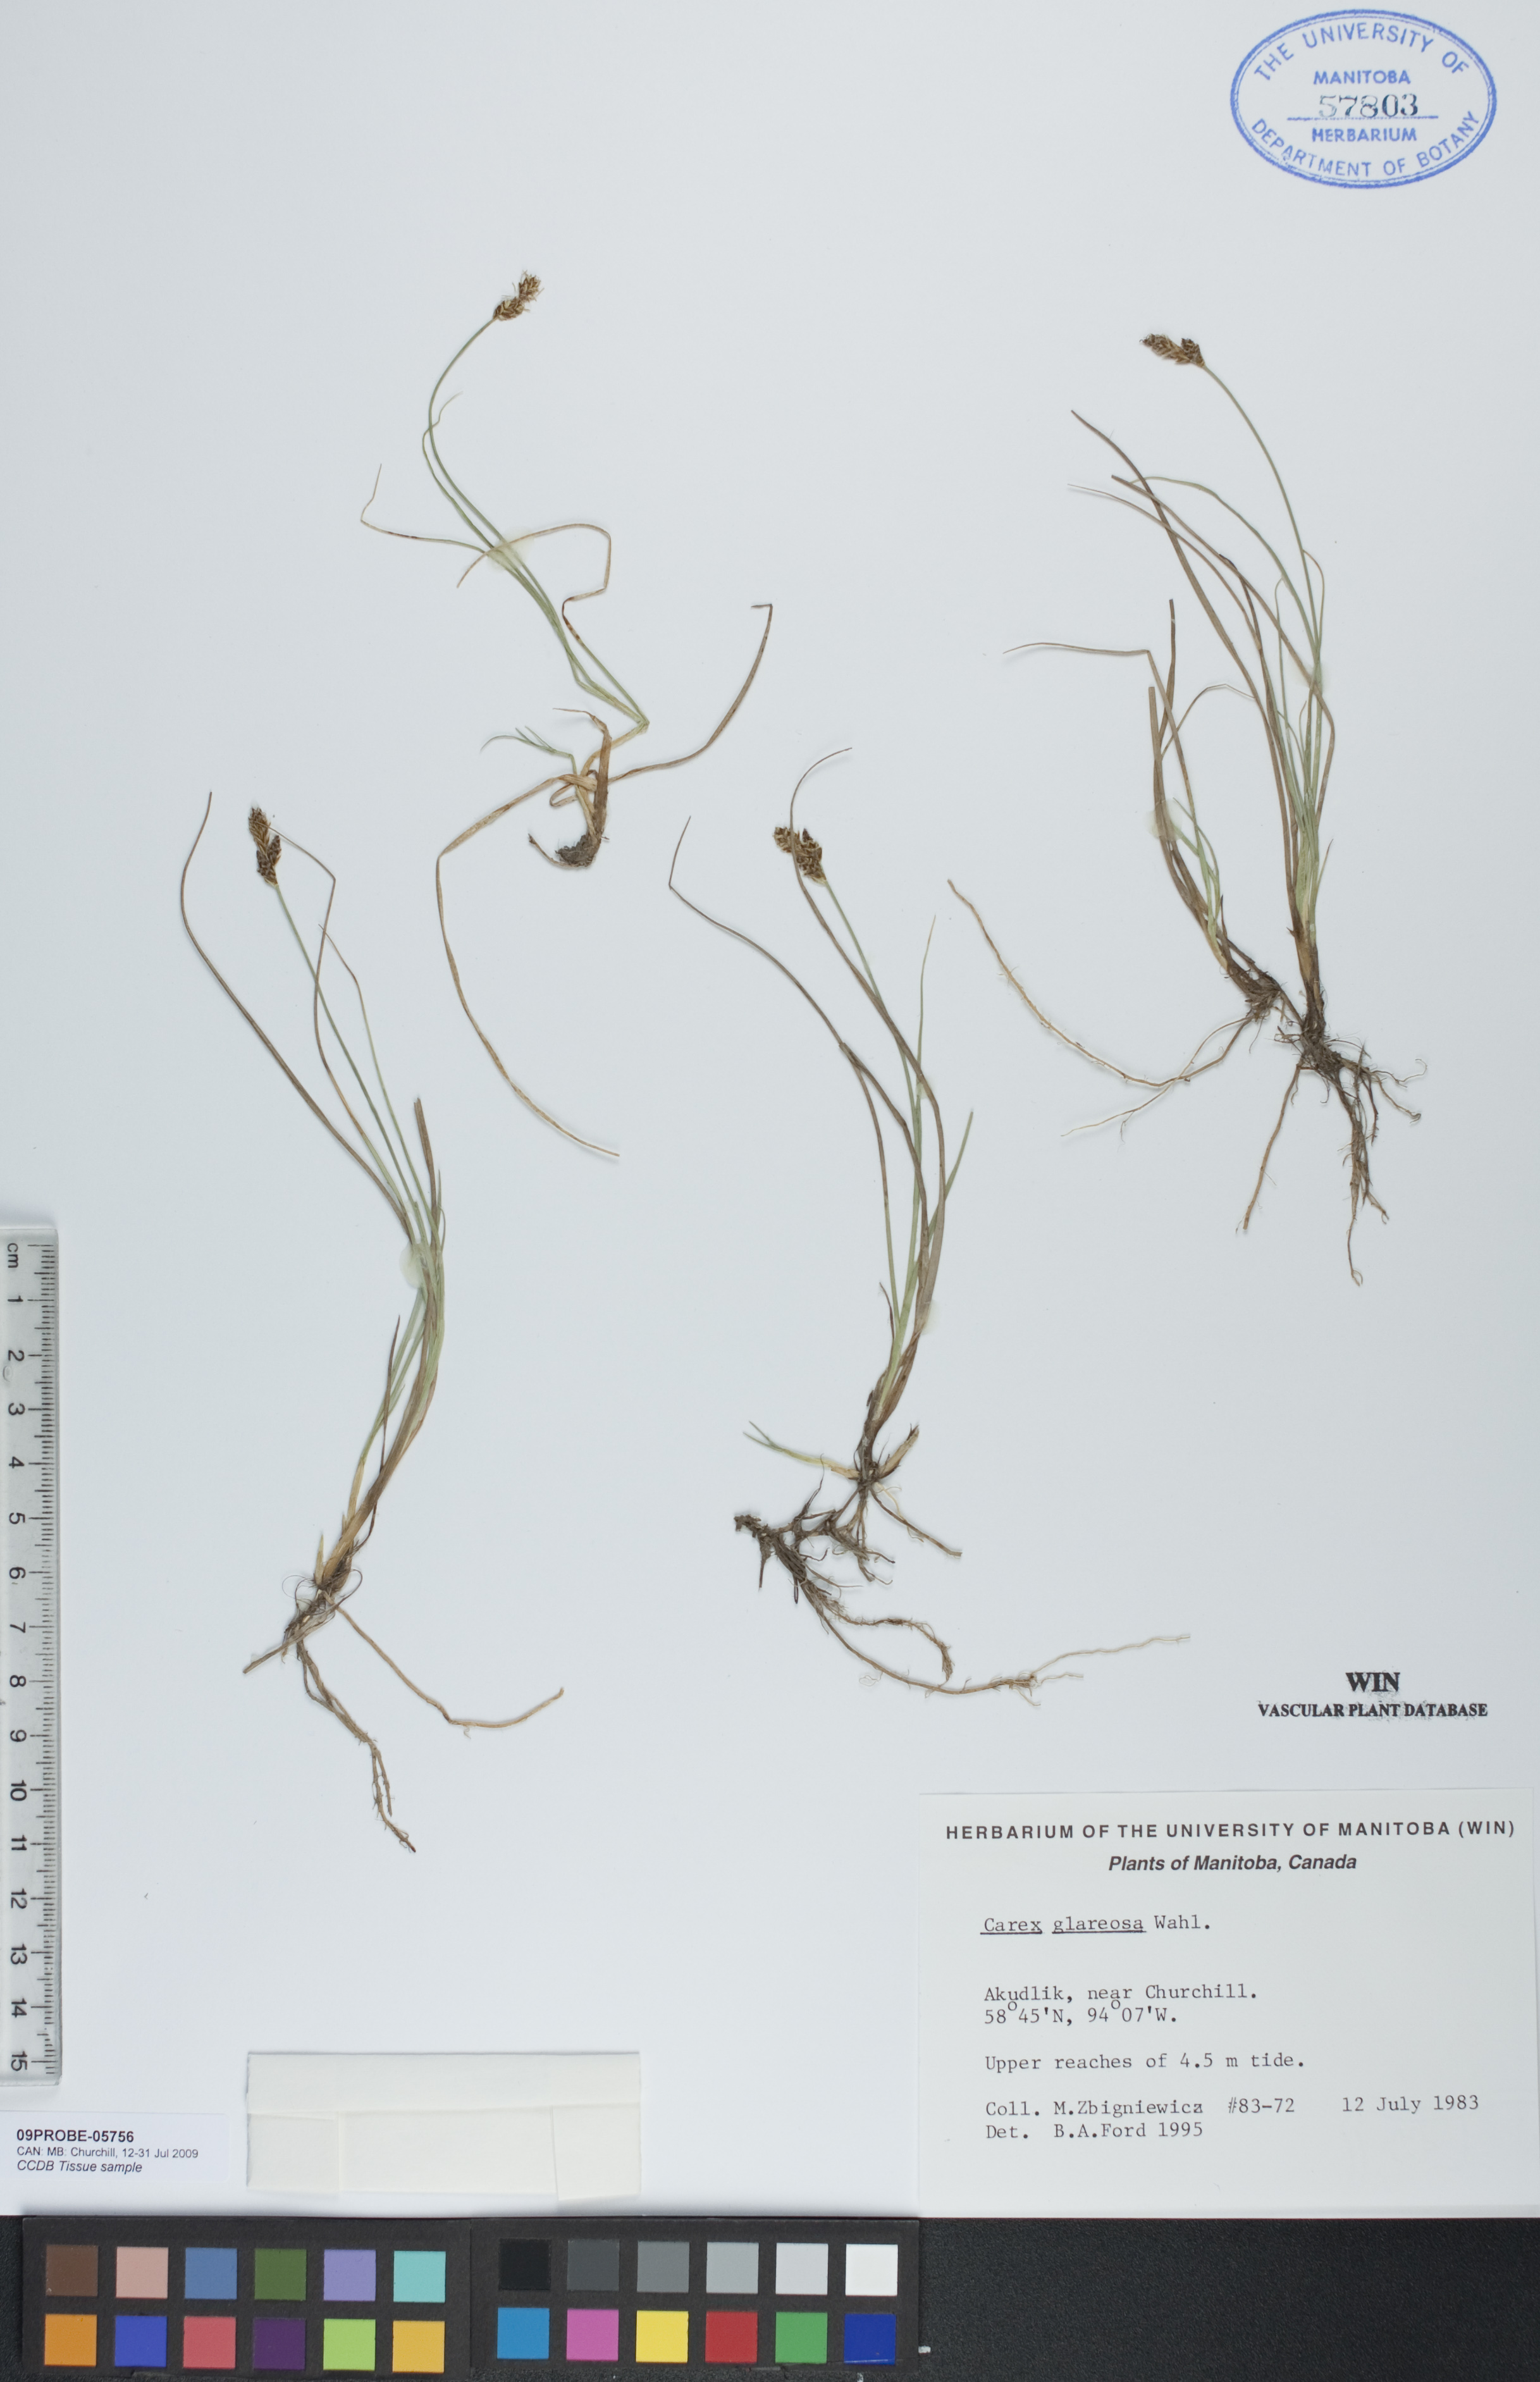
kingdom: Plantae
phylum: Tracheophyta
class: Liliopsida
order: Poales
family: Cyperaceae
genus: Carex
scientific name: Carex glareosa
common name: Clustered sedge
